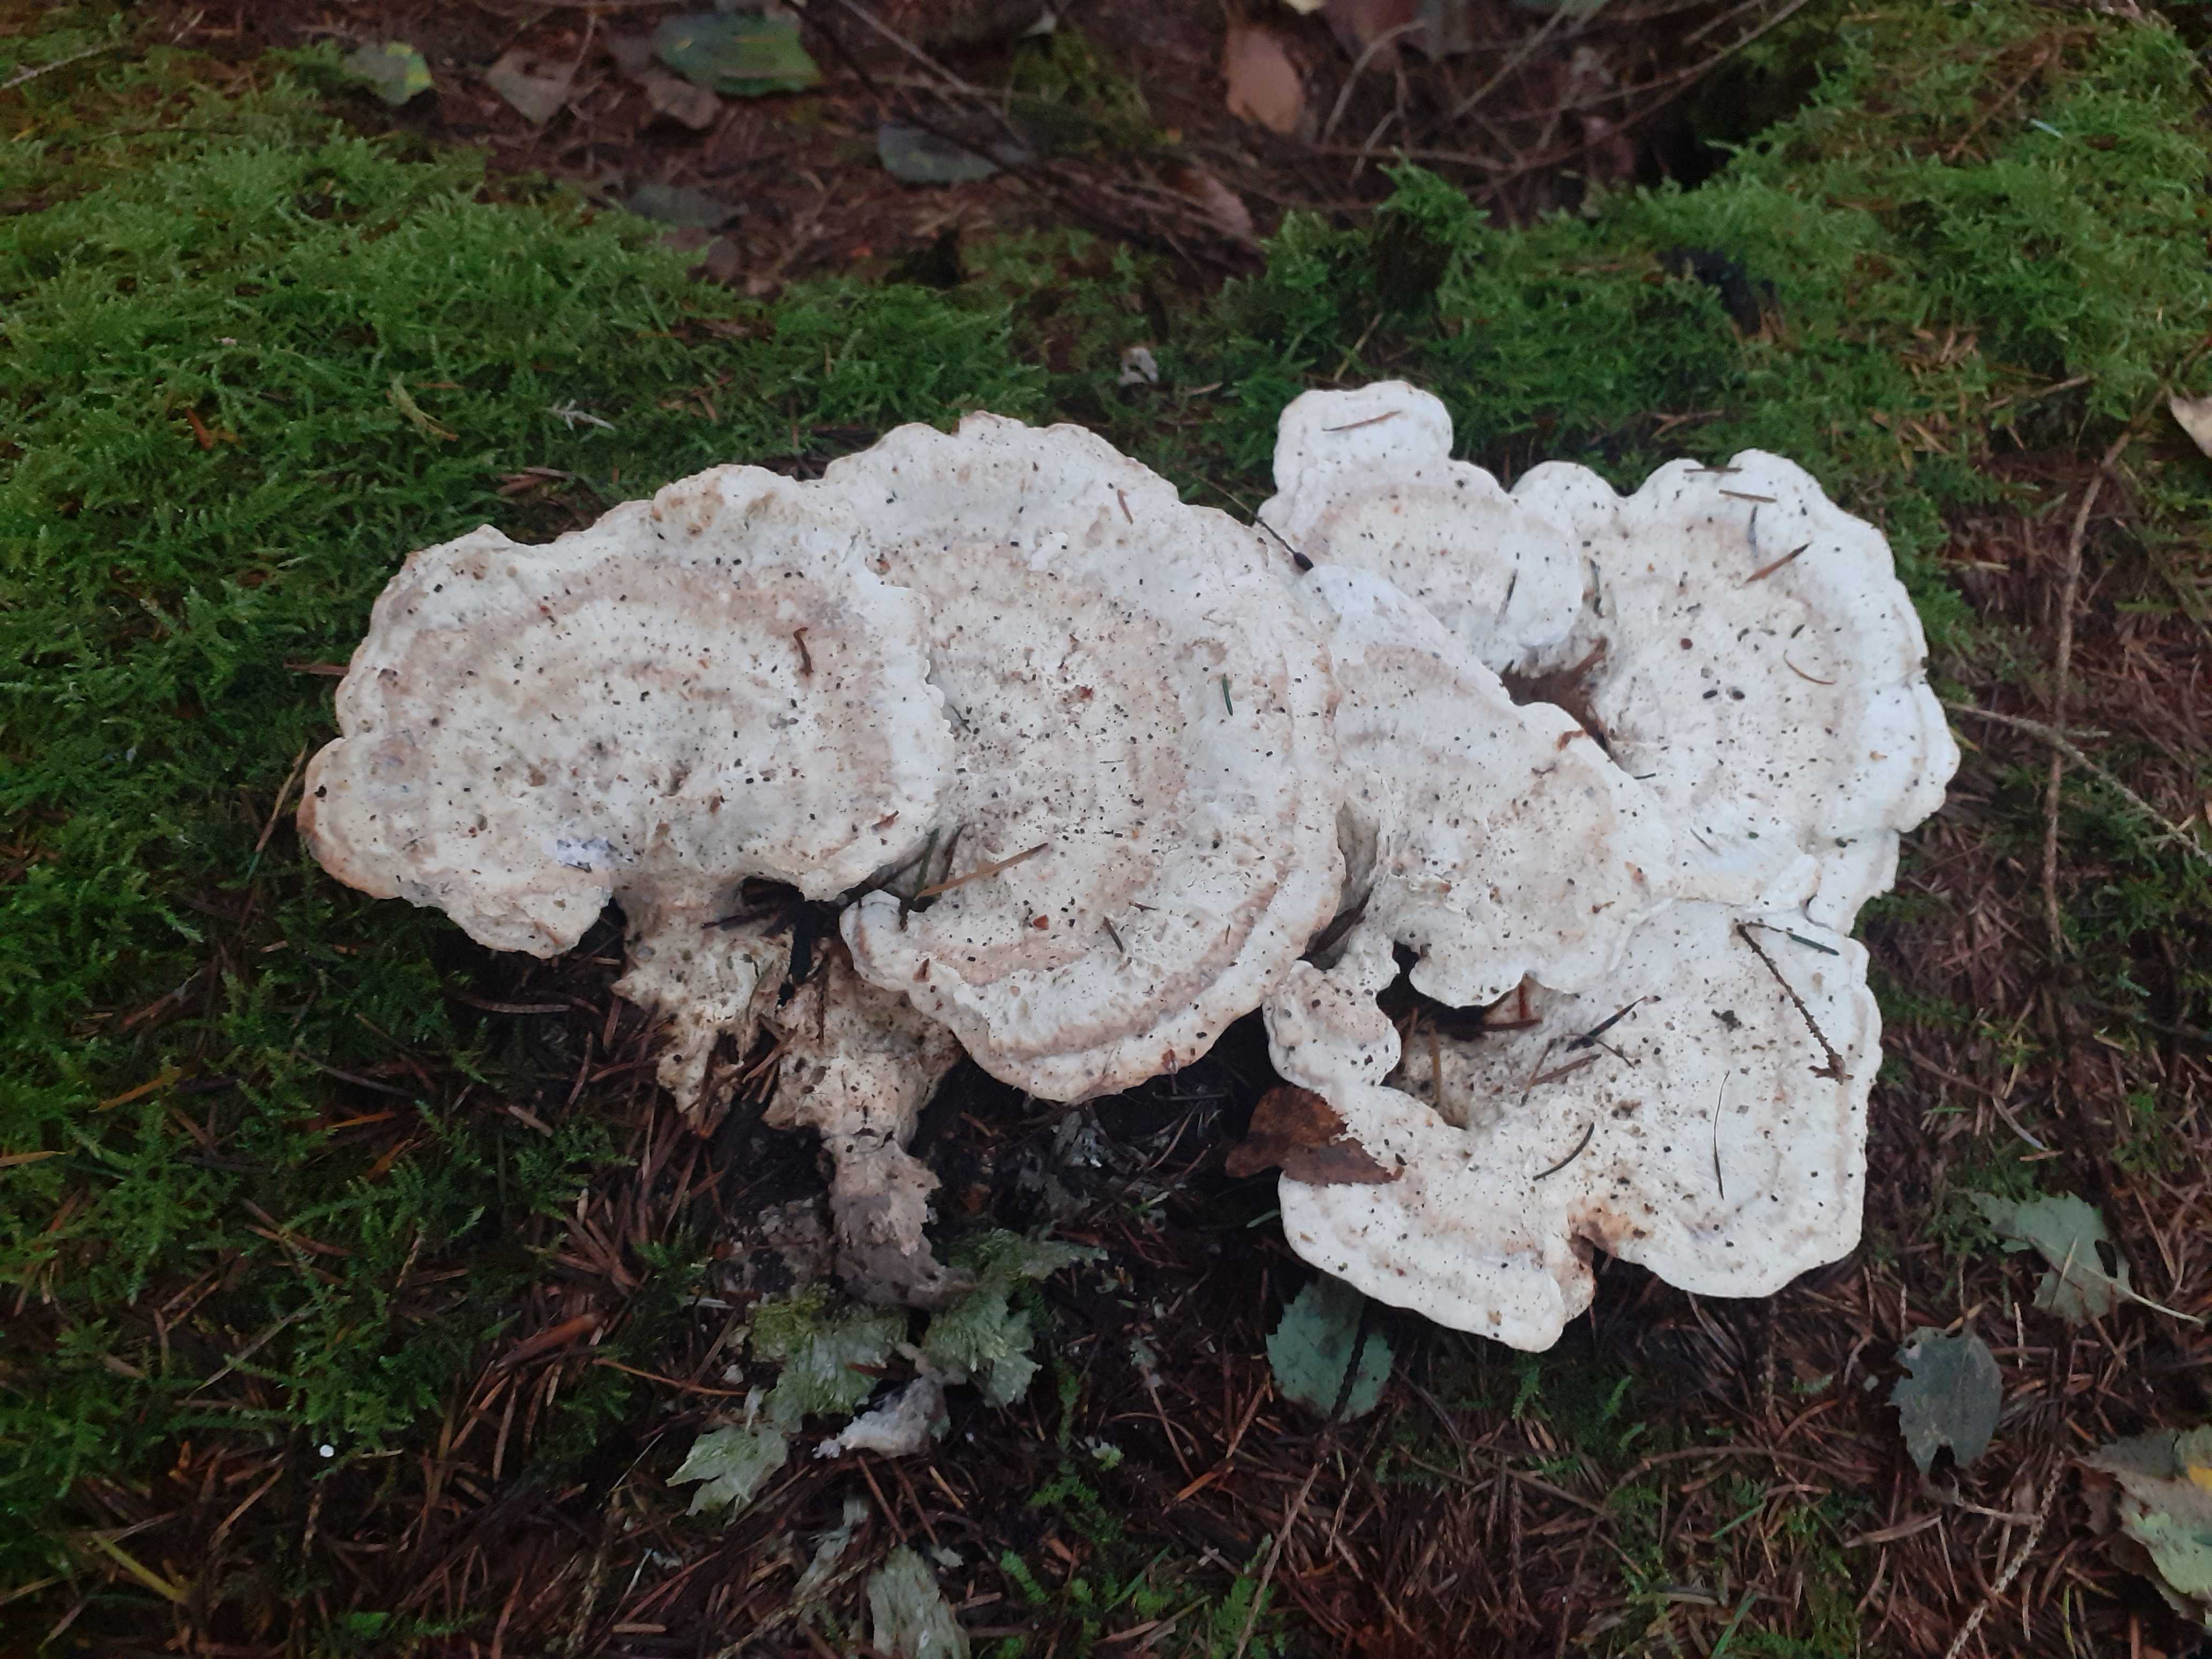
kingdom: Fungi
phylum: Basidiomycota
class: Agaricomycetes
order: Polyporales
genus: Calcipostia
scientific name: Calcipostia guttulata
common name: dråbe-kødporesvamp
